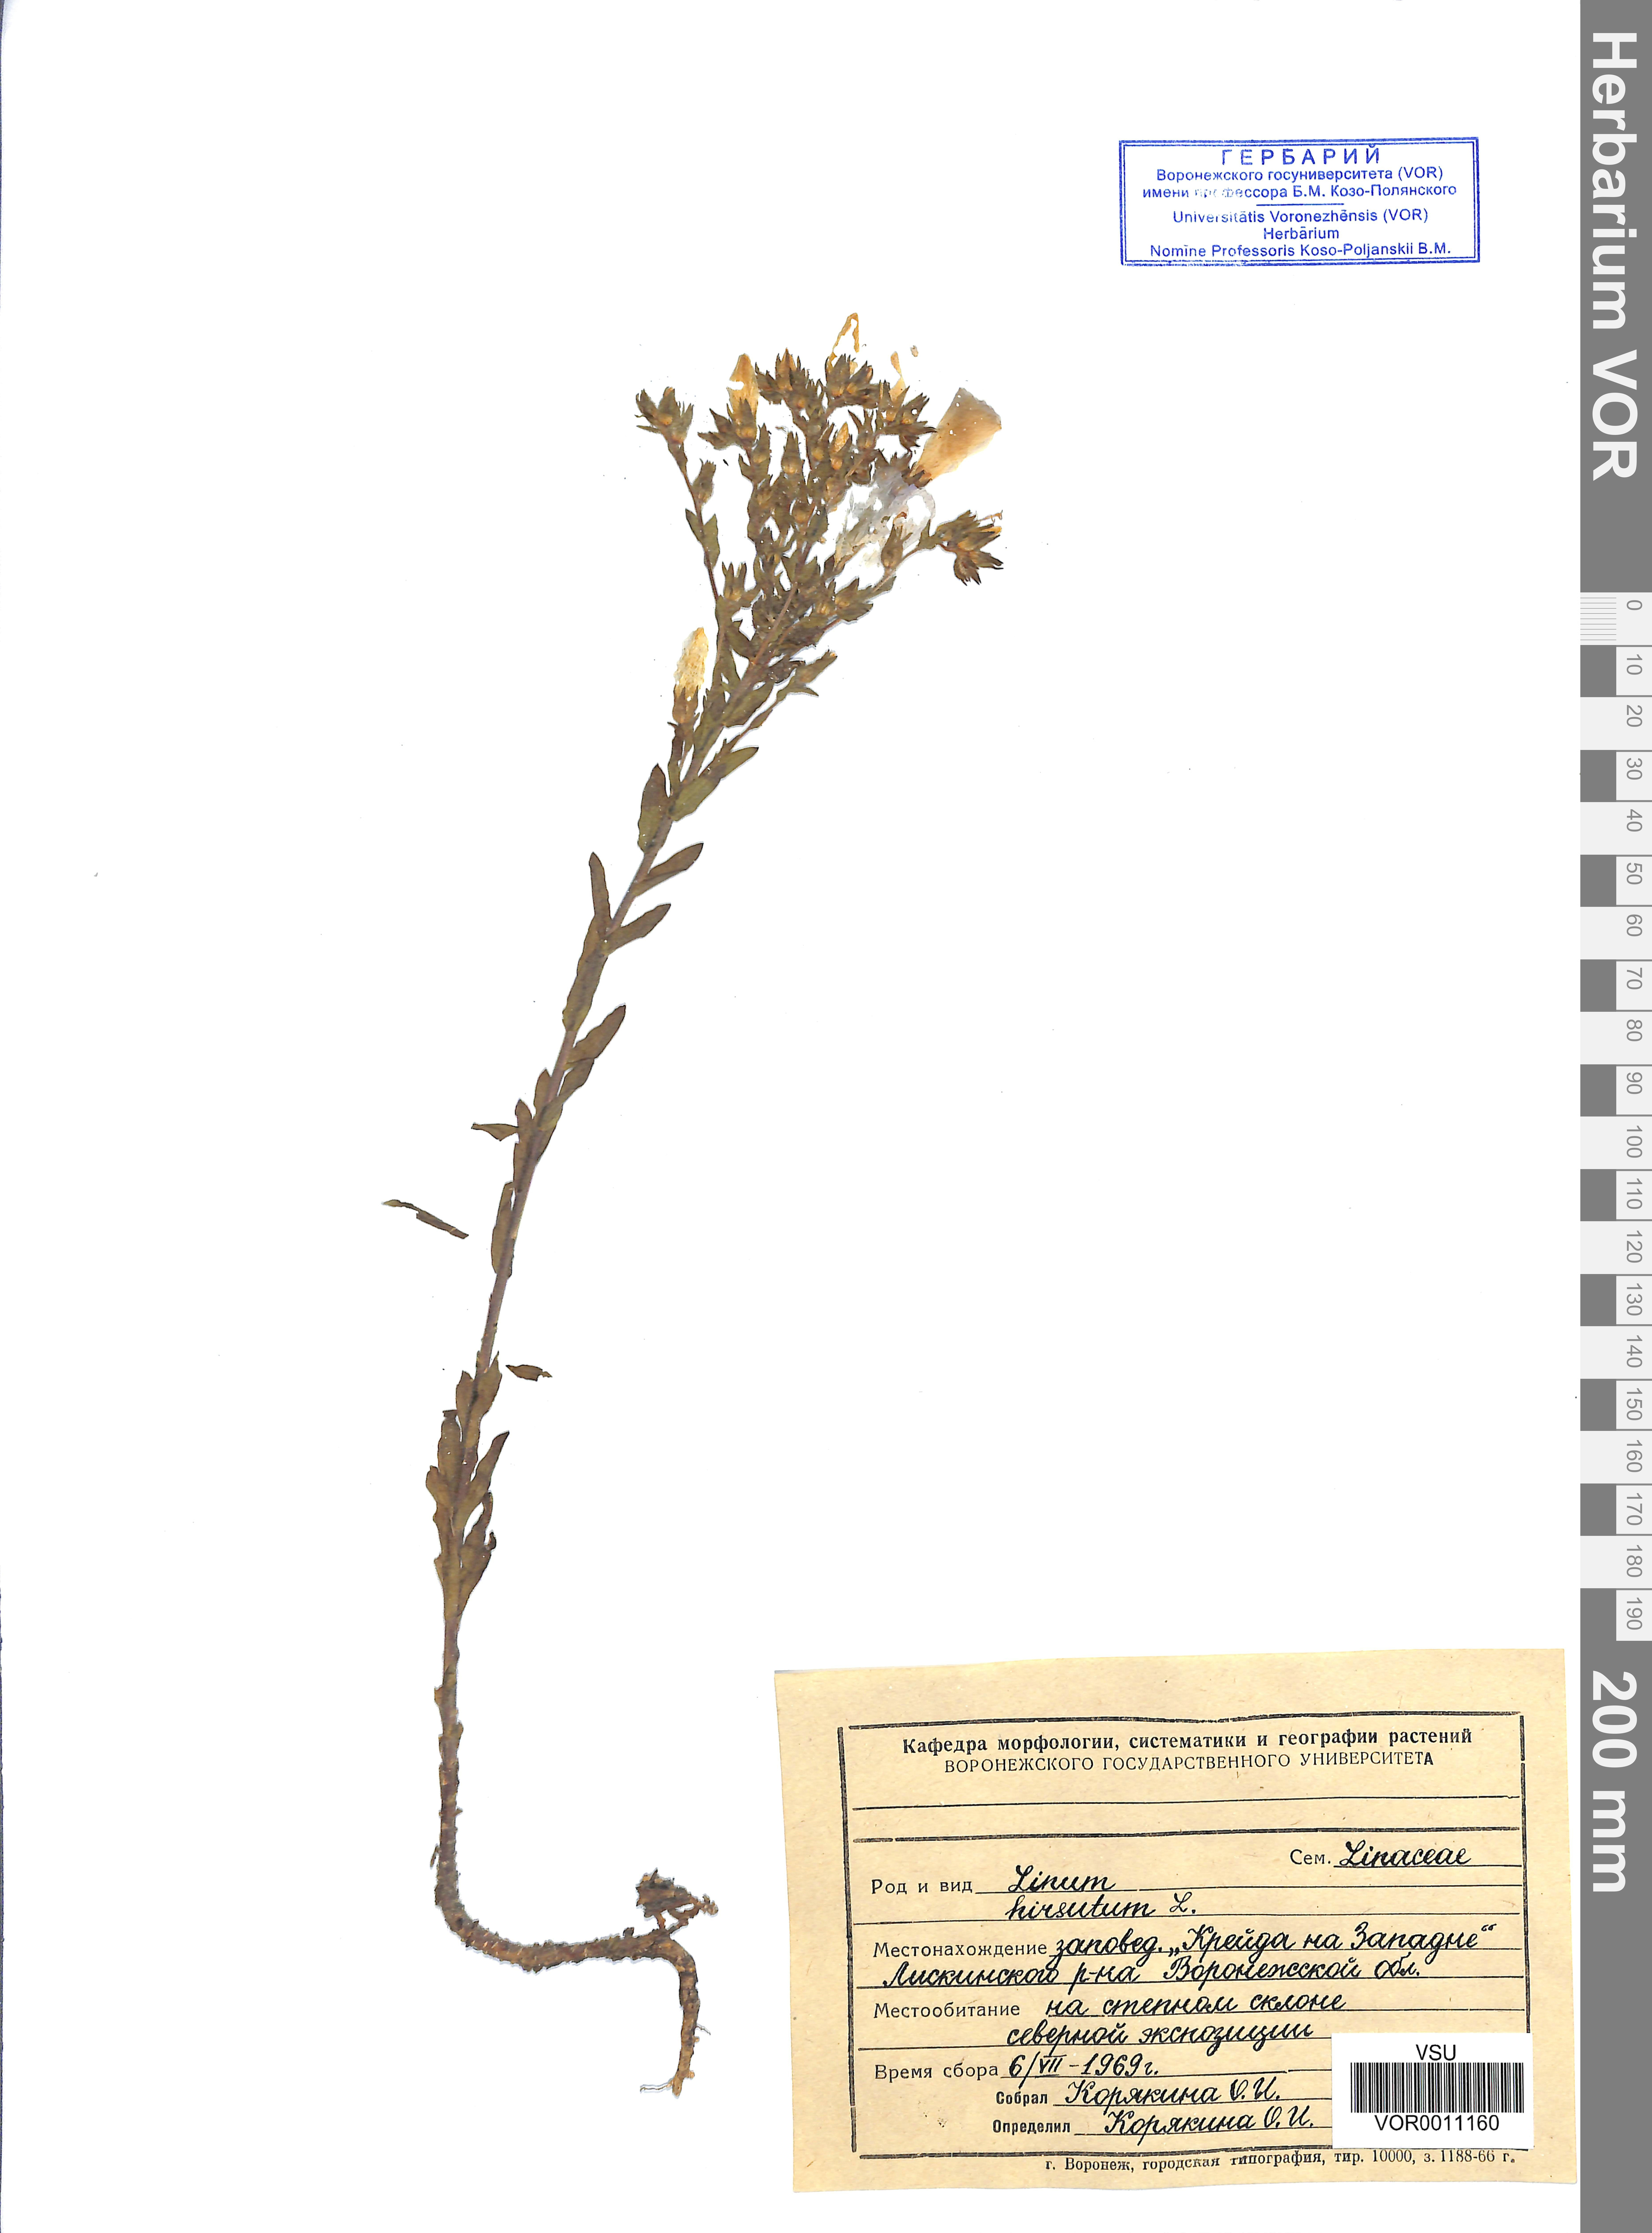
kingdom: Plantae
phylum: Tracheophyta
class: Magnoliopsida
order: Malpighiales
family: Linaceae
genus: Linum
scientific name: Linum hirsutum
